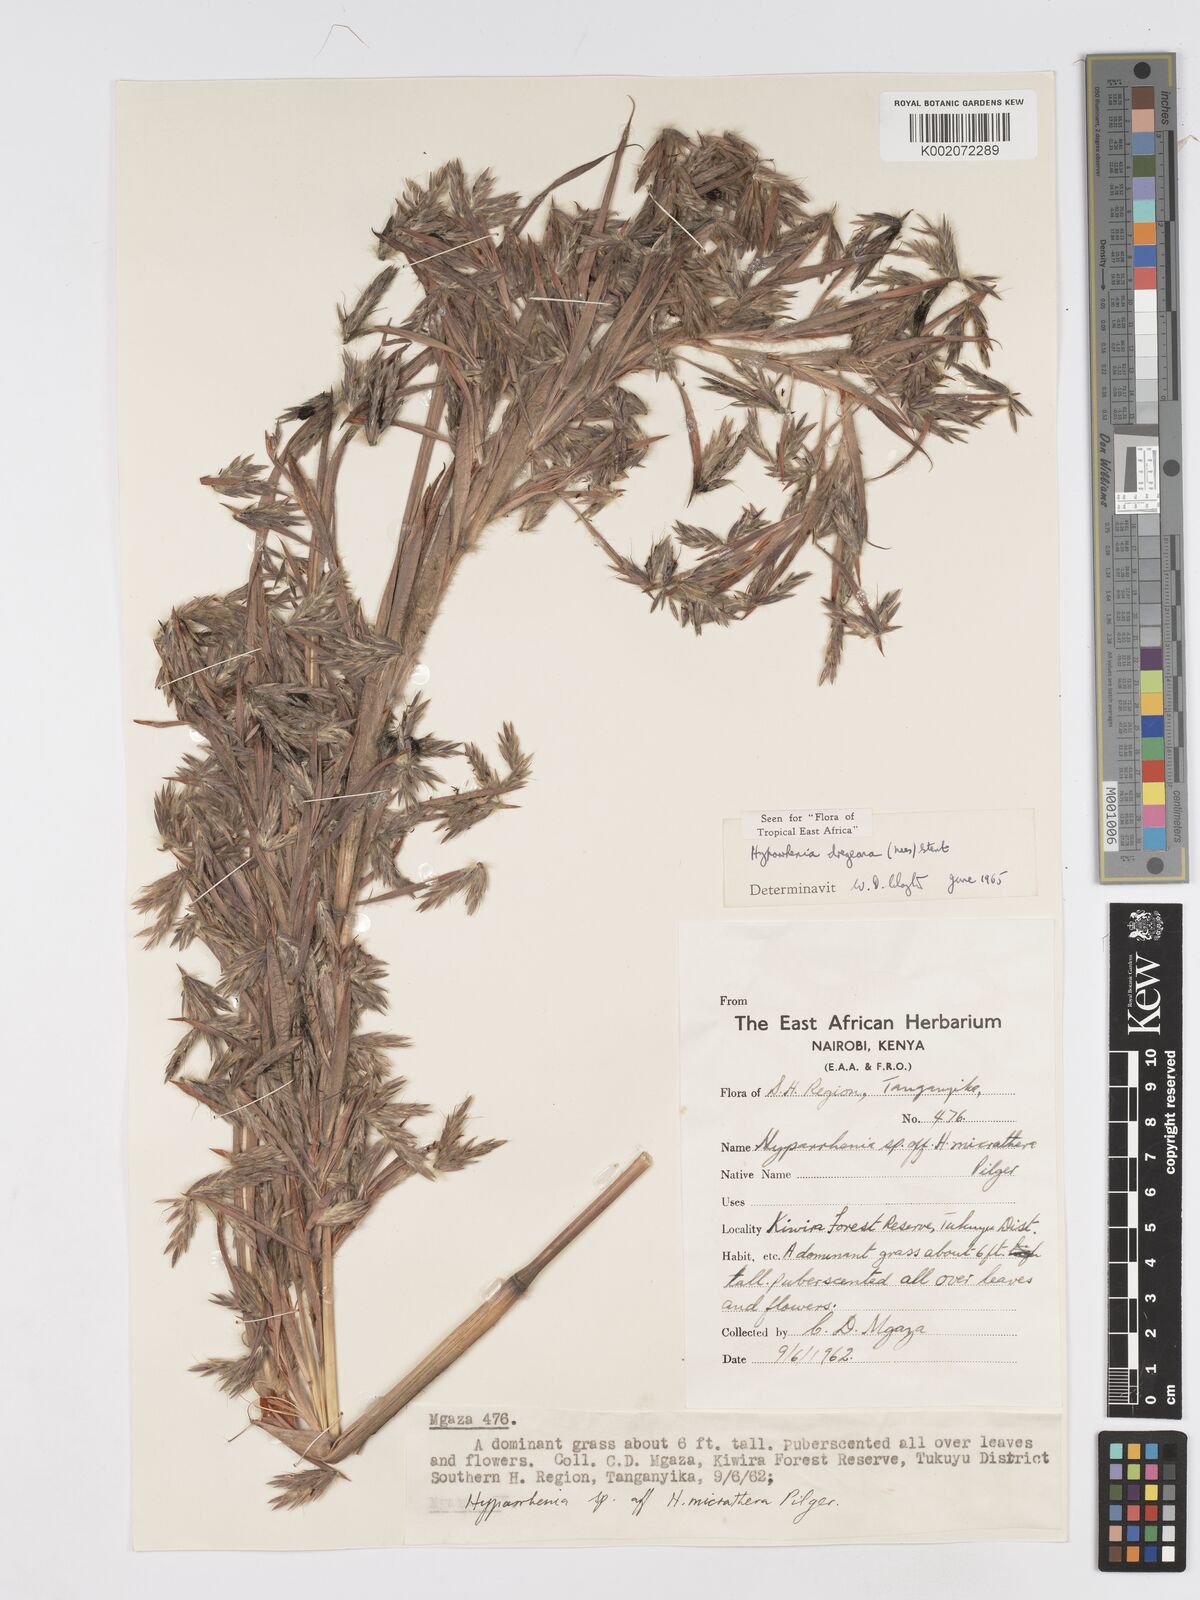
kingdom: Plantae
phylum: Tracheophyta
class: Liliopsida
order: Poales
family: Poaceae
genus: Hyparrhenia
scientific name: Hyparrhenia dregeana
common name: Silky thatching grass
